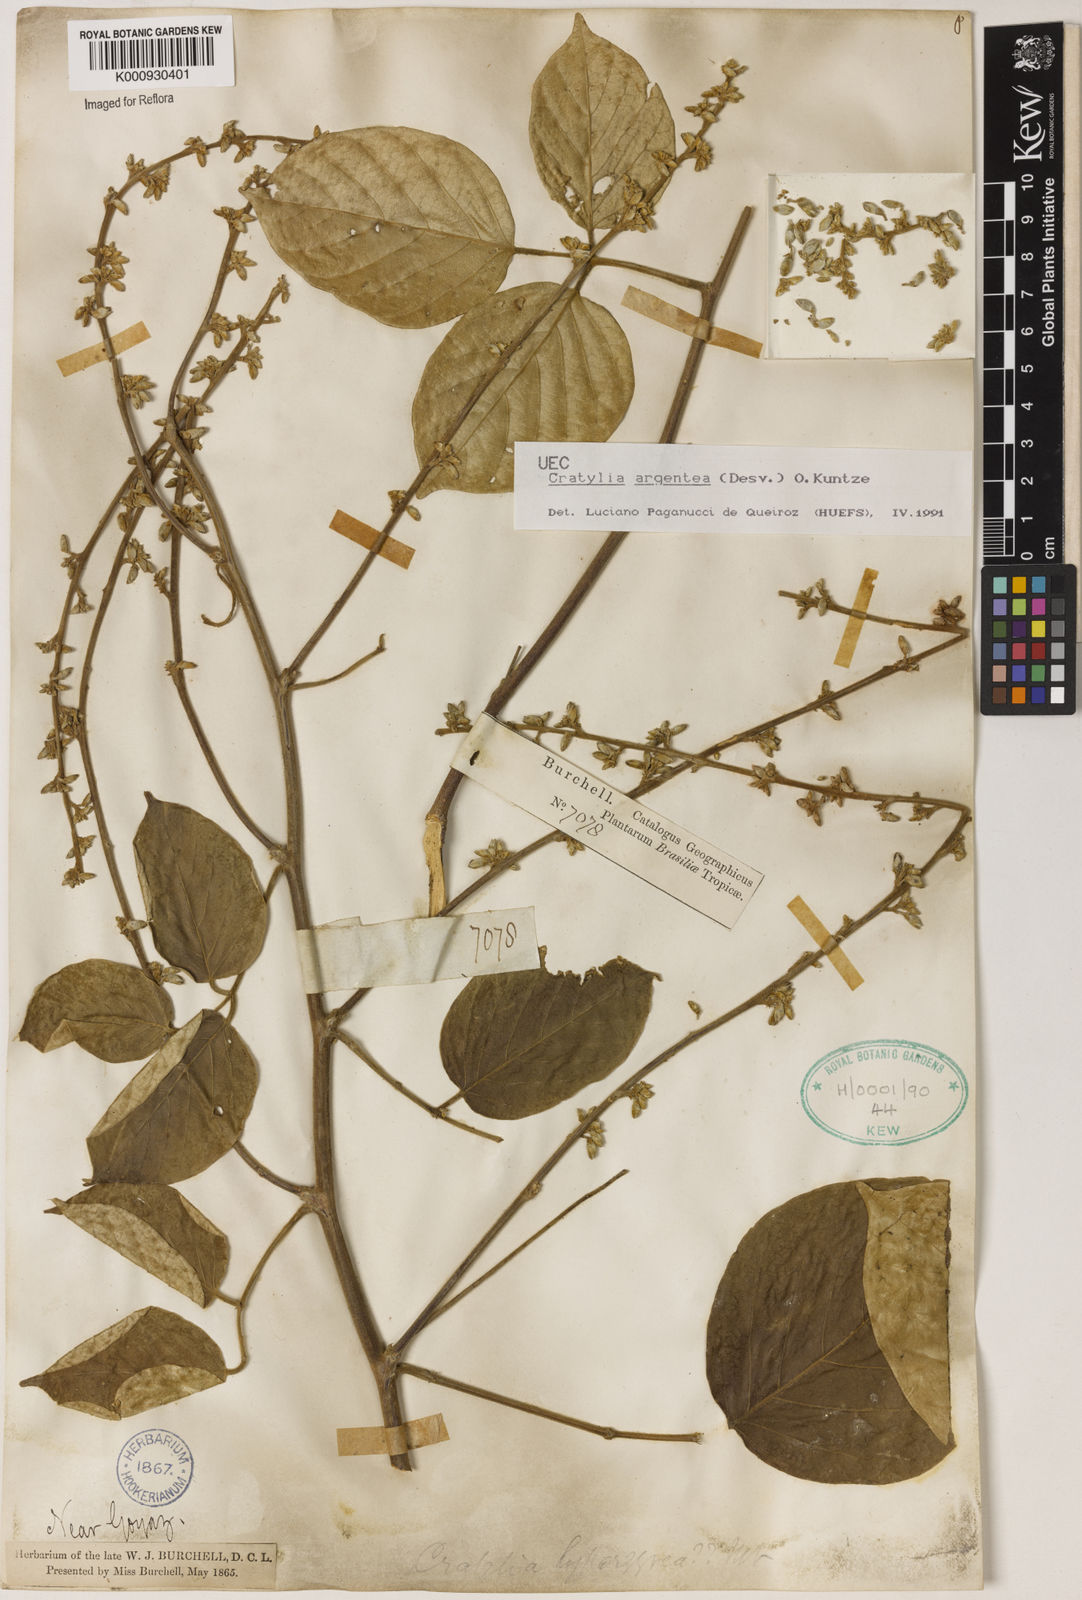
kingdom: Plantae
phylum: Tracheophyta
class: Magnoliopsida
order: Fabales
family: Fabaceae
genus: Cratylia
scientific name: Cratylia argentea
